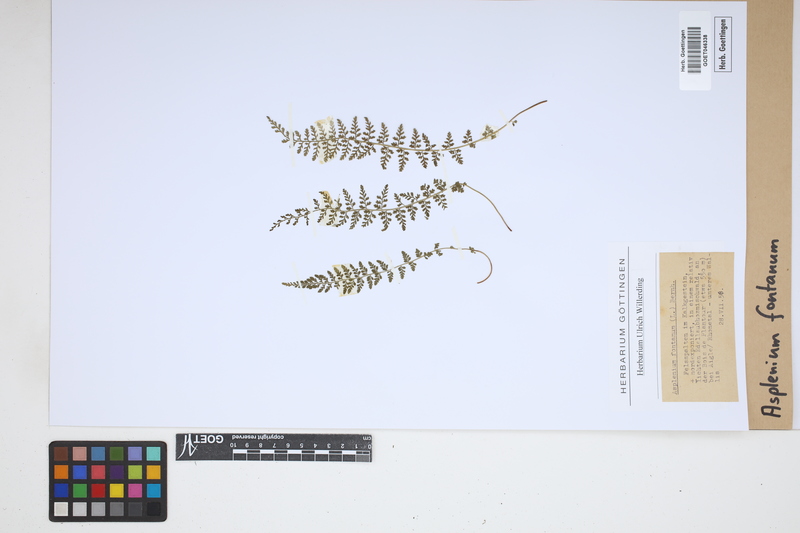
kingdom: Plantae
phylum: Tracheophyta
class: Polypodiopsida
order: Polypodiales
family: Aspleniaceae
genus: Asplenium
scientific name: Asplenium fontanum
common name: Fountain spleenwort
